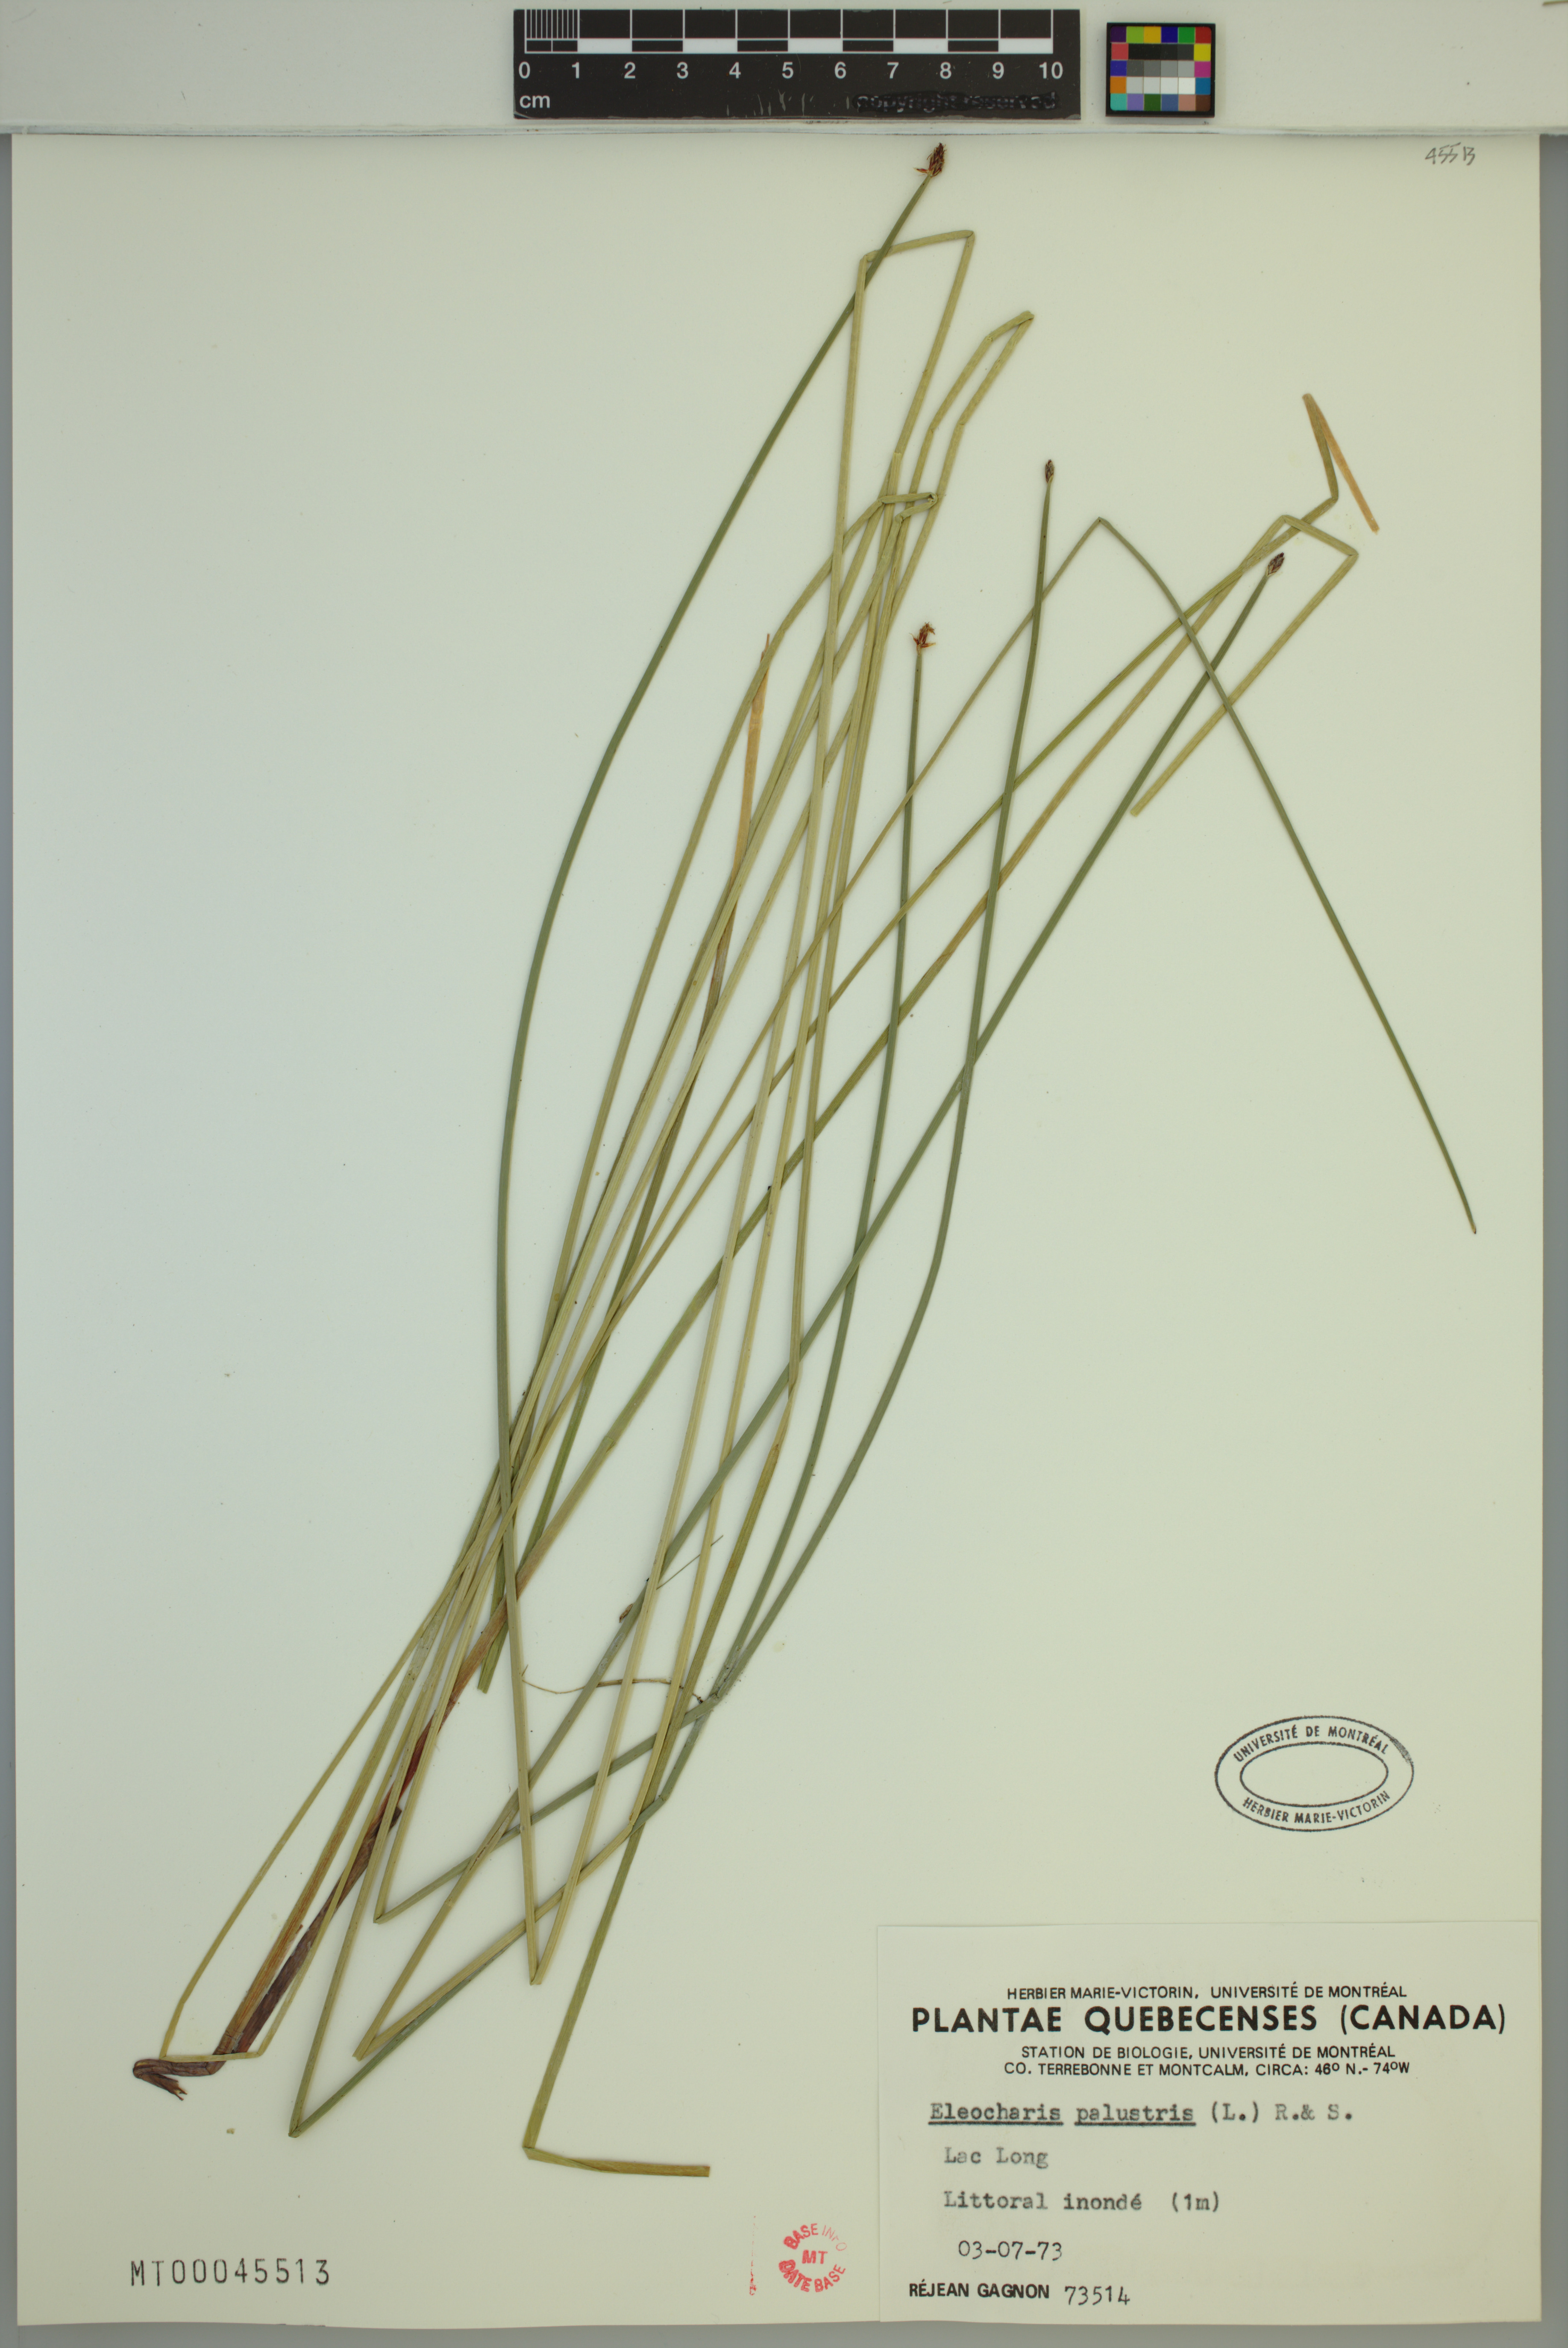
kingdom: Plantae
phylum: Tracheophyta
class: Liliopsida
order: Poales
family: Cyperaceae
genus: Eleocharis
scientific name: Eleocharis palustris
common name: Common spike-rush
